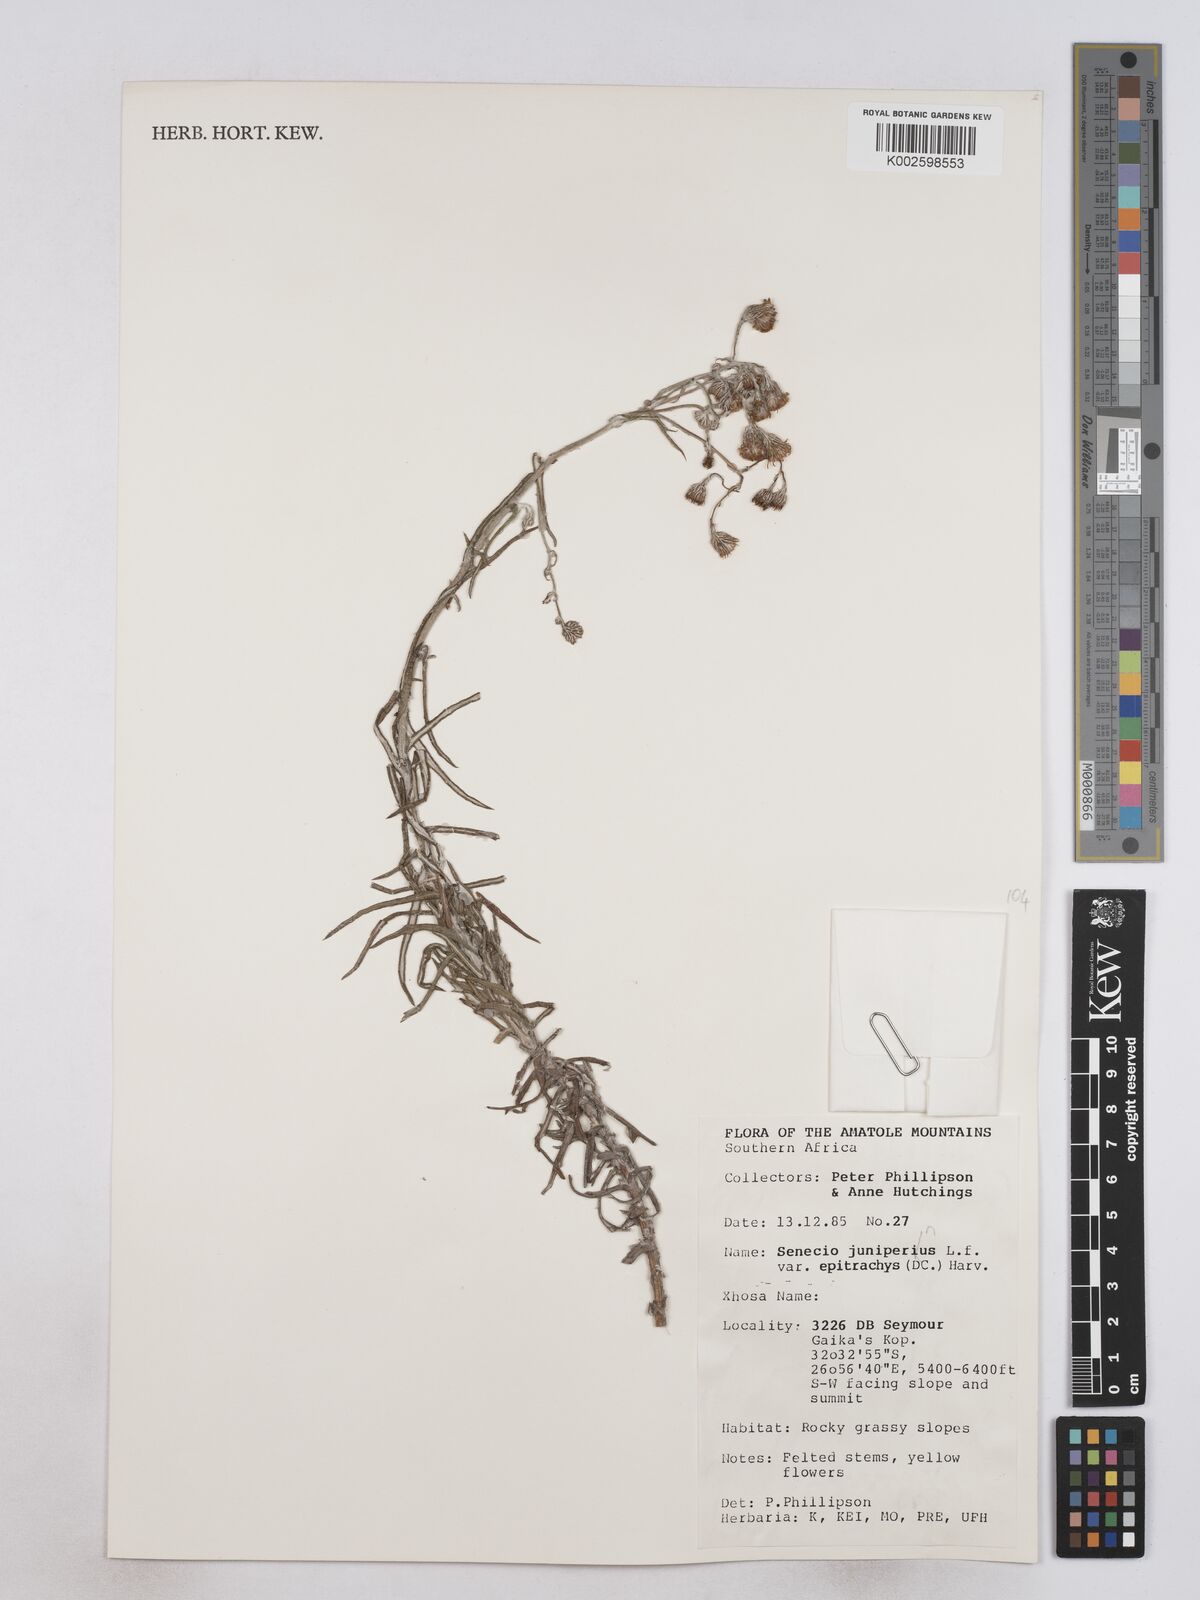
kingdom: Plantae
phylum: Tracheophyta
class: Magnoliopsida
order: Asterales
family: Asteraceae
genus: Senecio
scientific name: Senecio juniperinus
